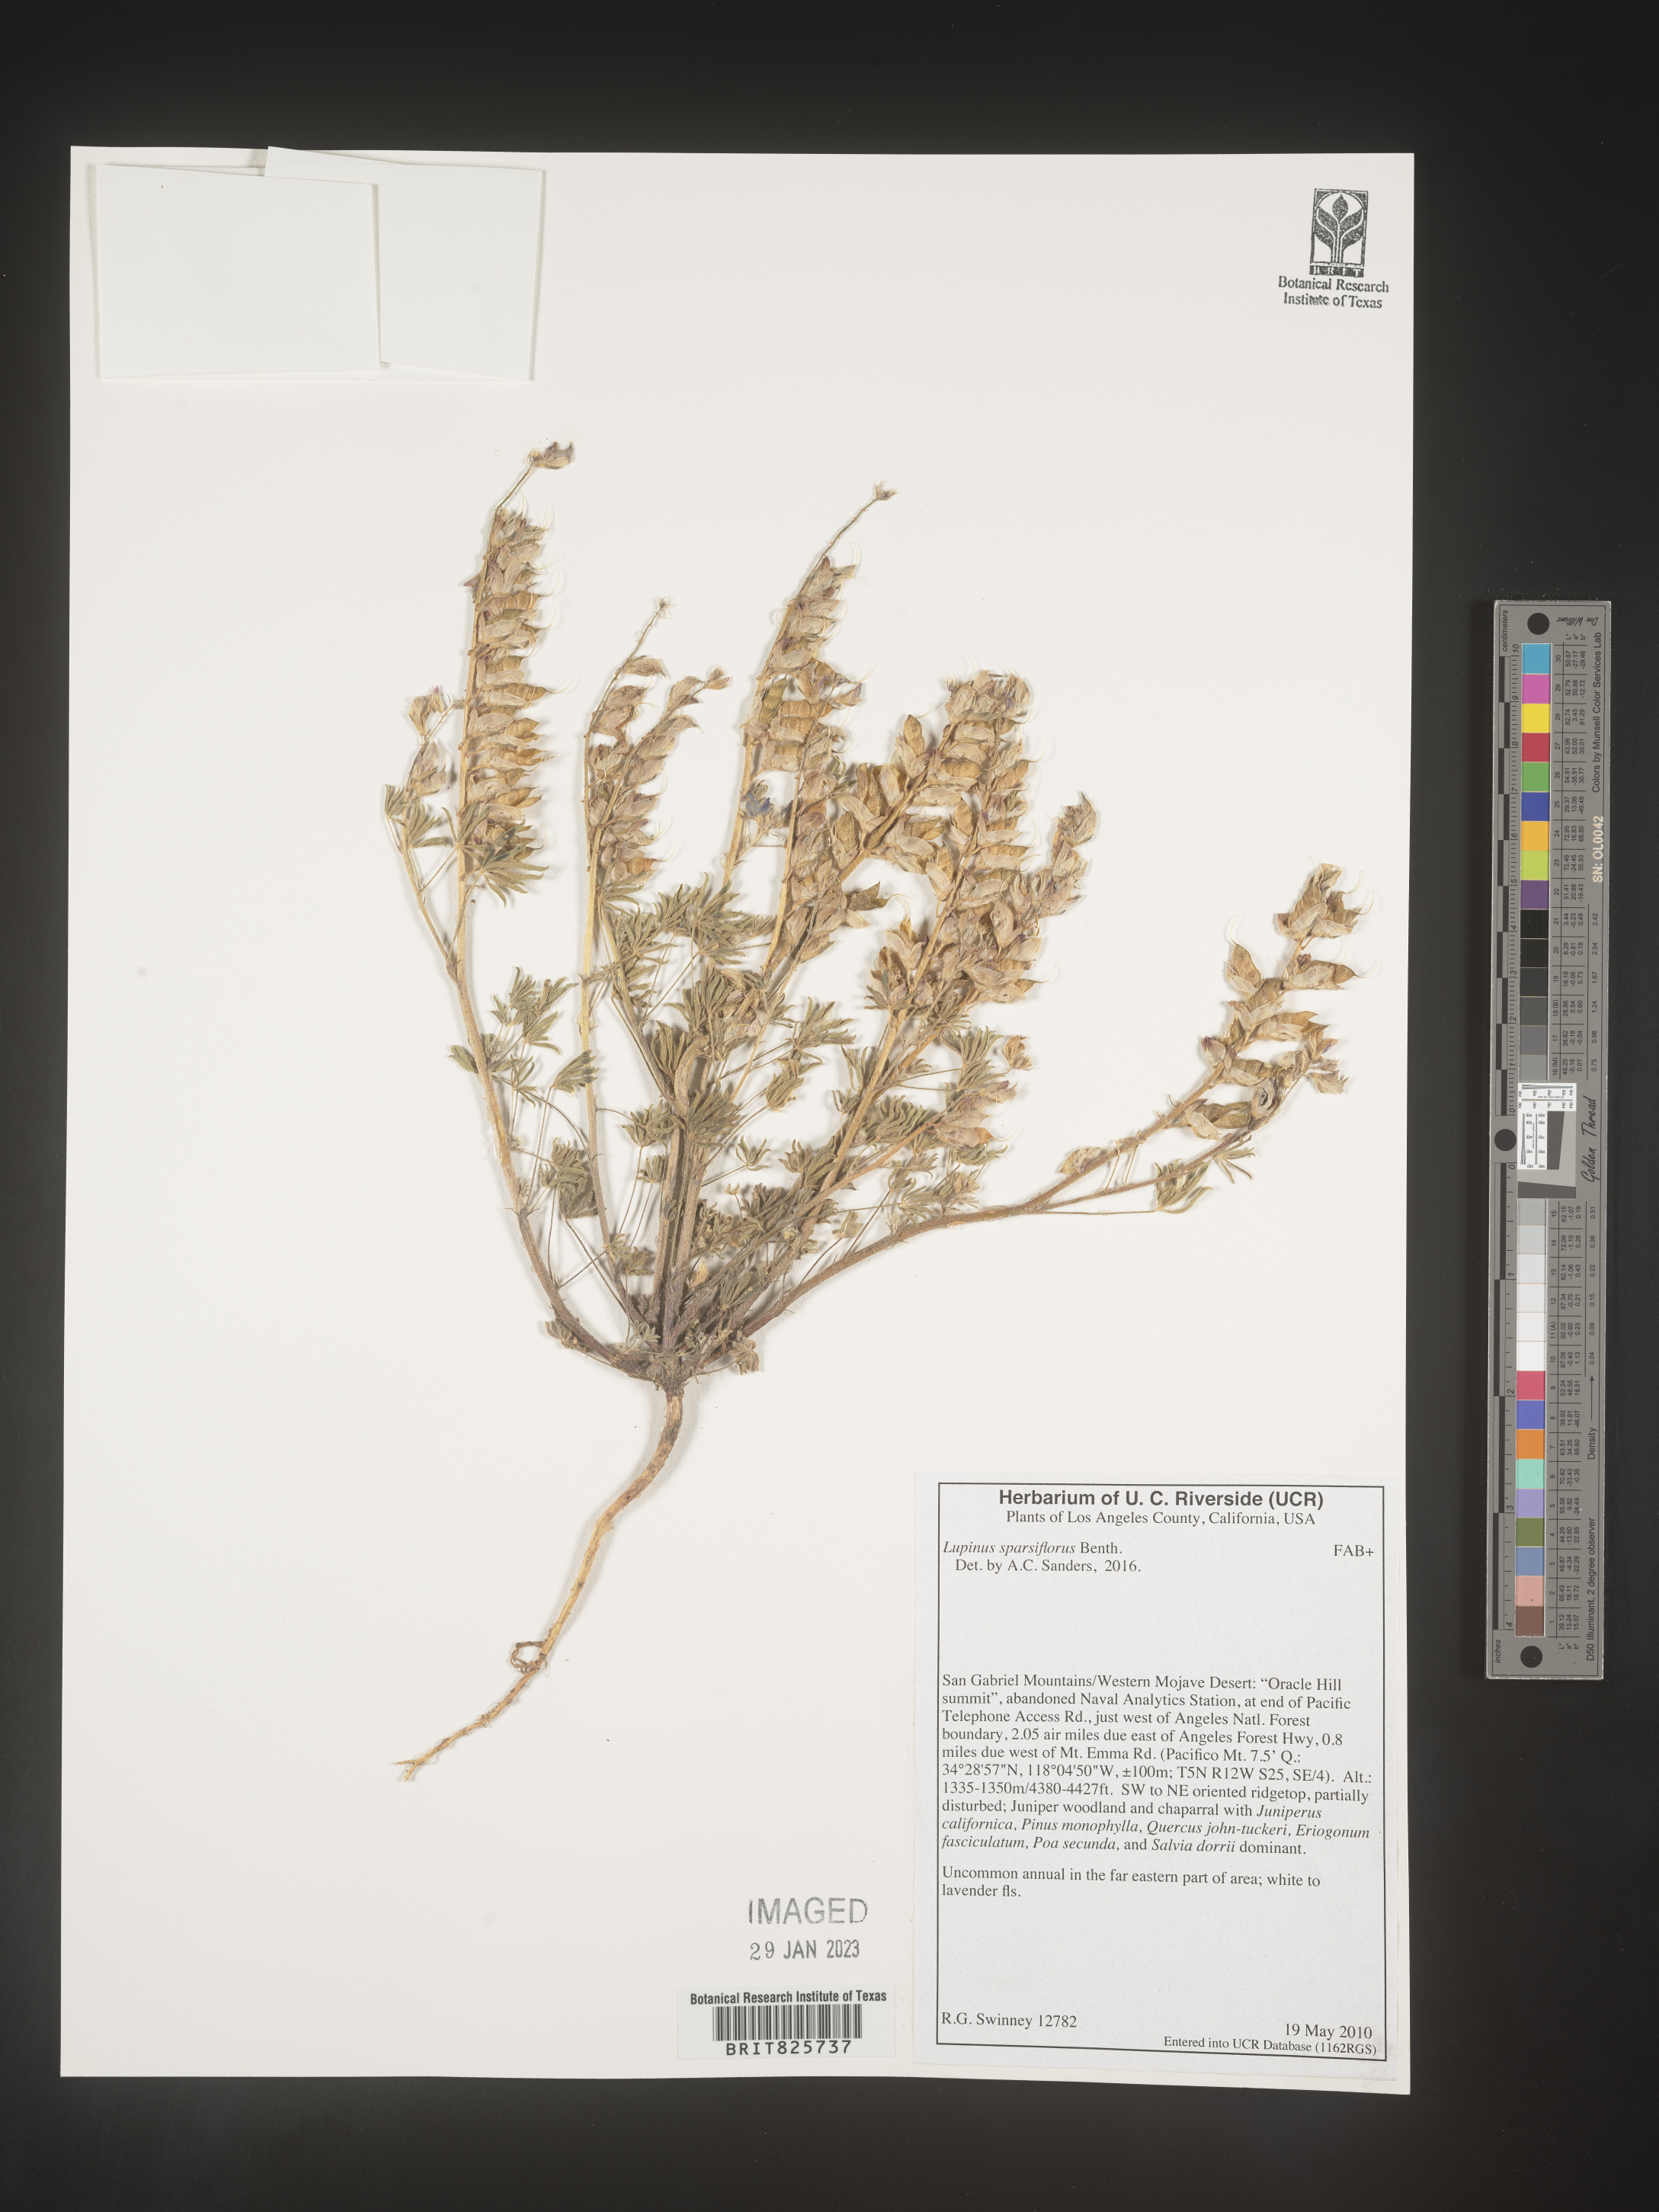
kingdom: Plantae
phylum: Tracheophyta
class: Magnoliopsida
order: Fabales
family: Fabaceae
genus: Lupinus
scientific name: Lupinus
